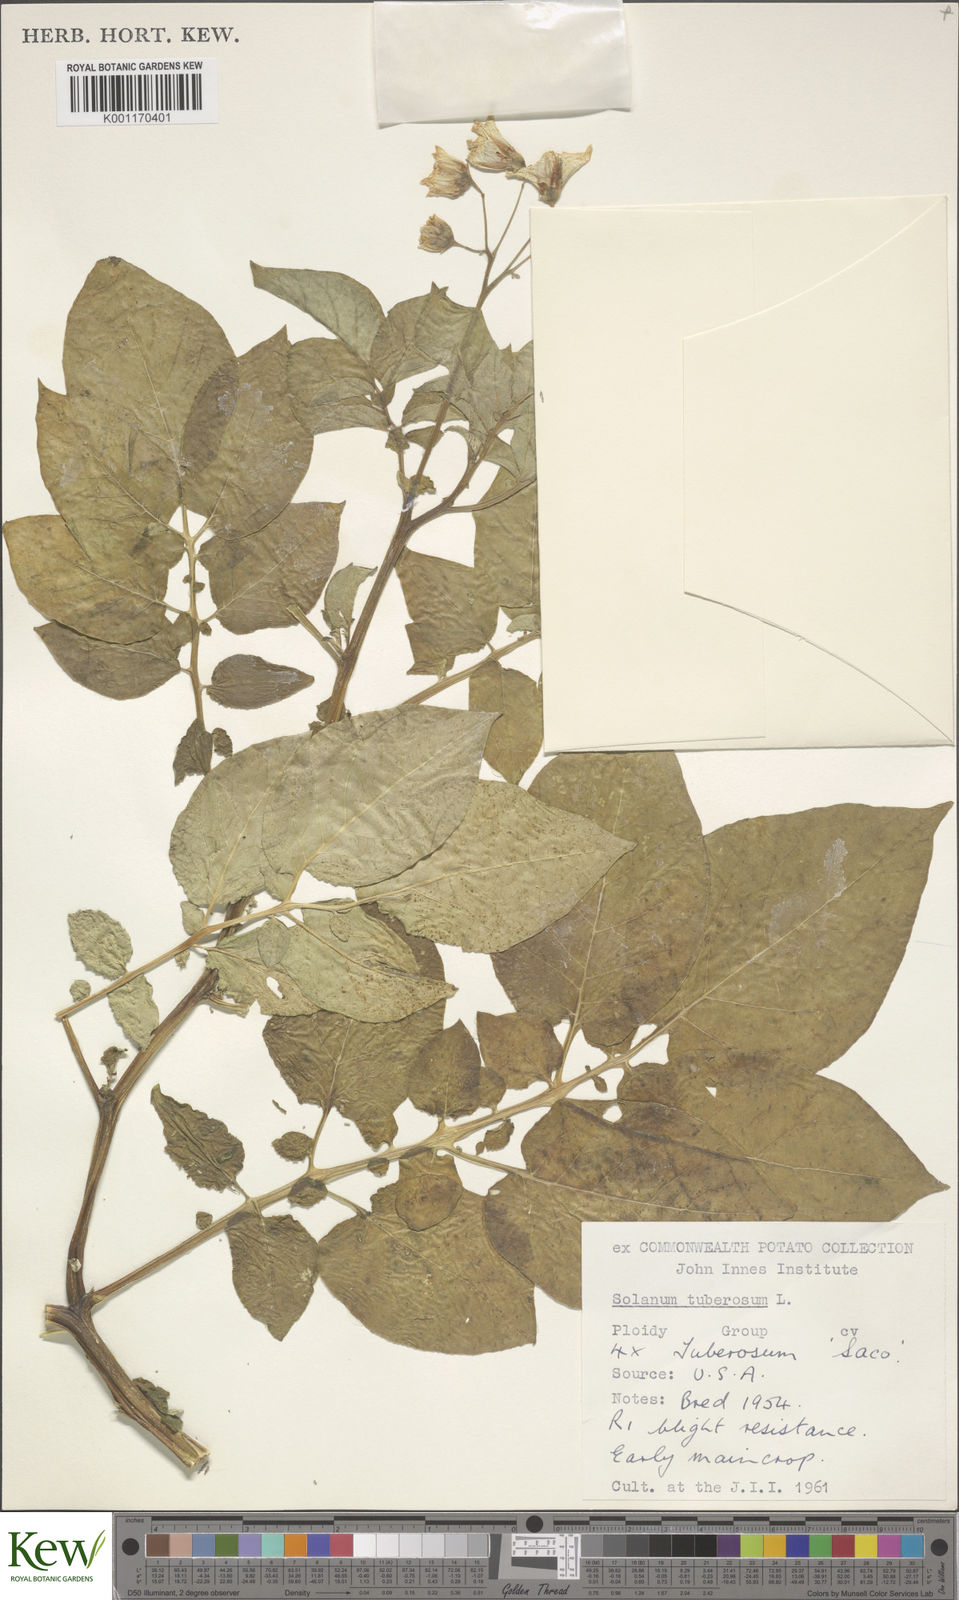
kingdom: Plantae
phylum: Tracheophyta
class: Magnoliopsida
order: Solanales
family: Solanaceae
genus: Solanum
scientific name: Solanum tuberosum
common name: Potato
